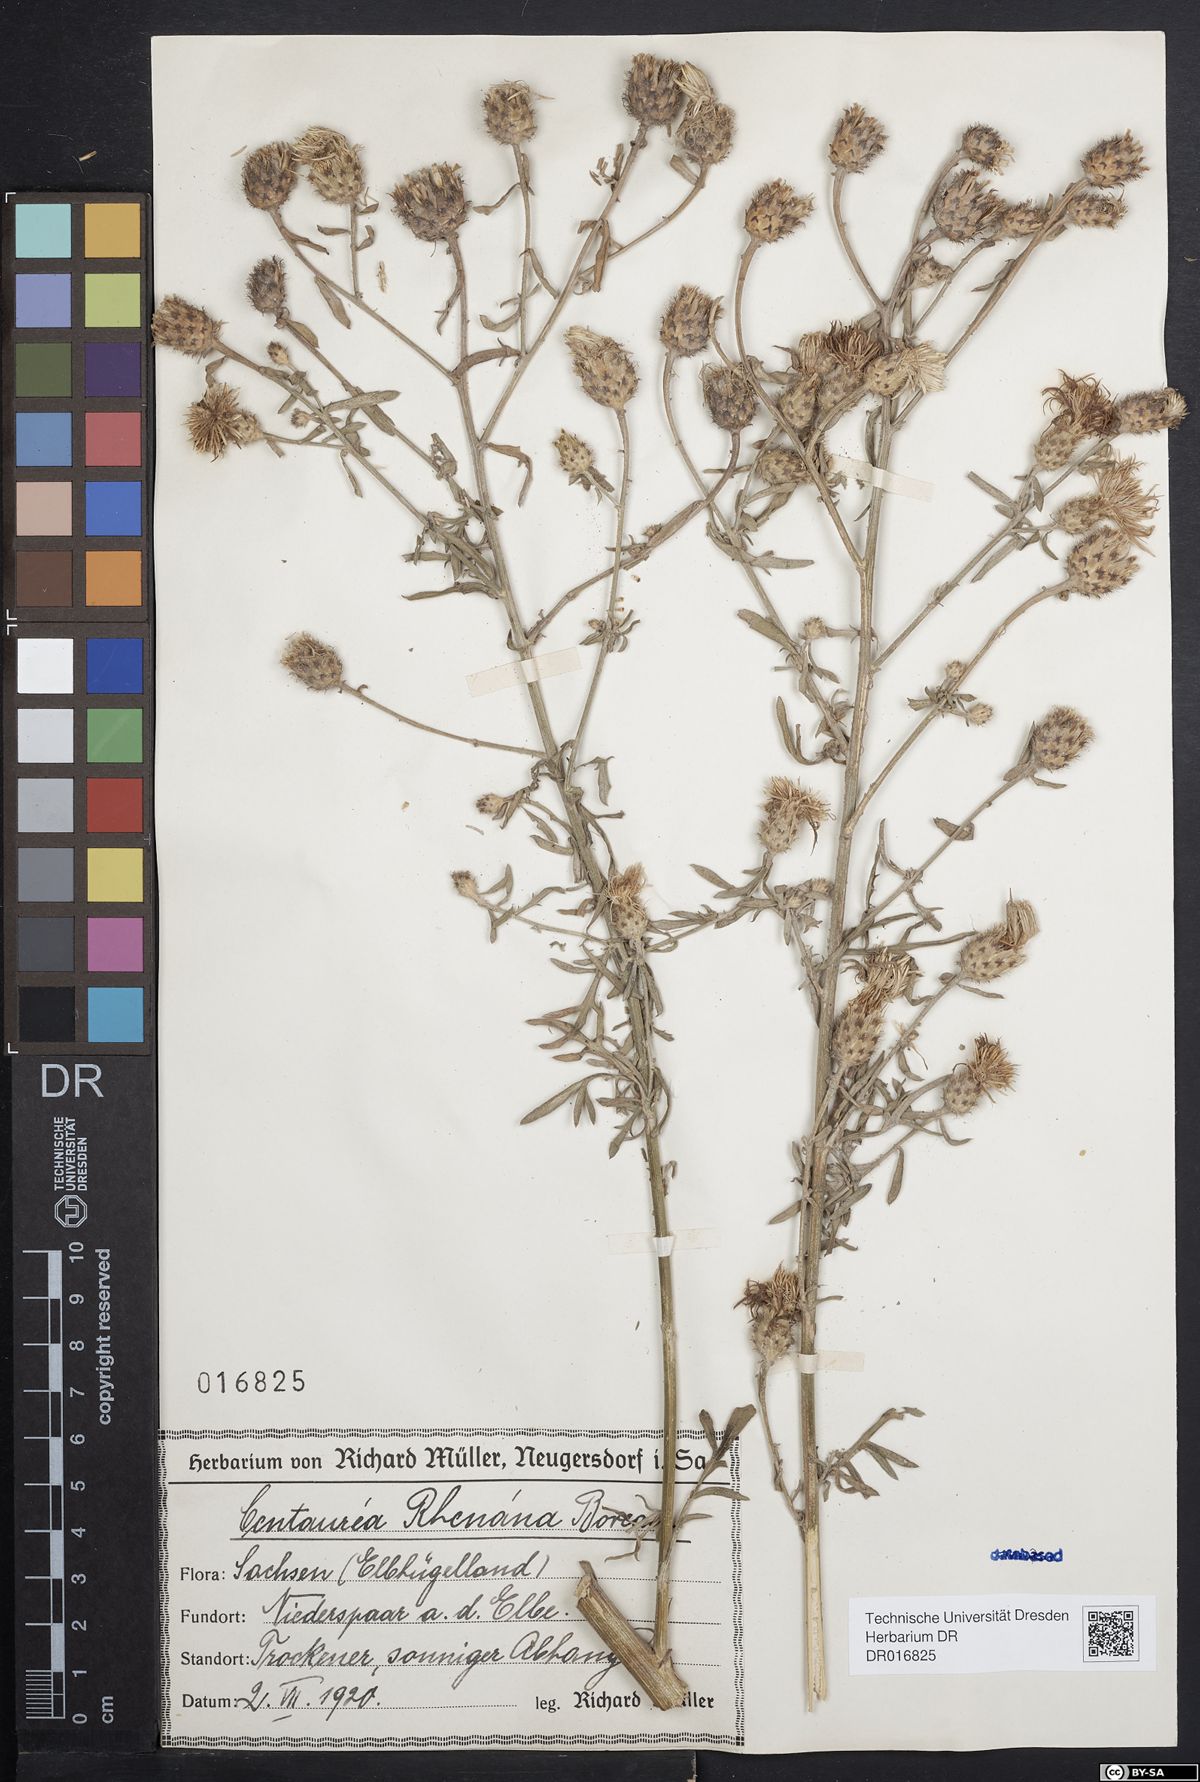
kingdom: Plantae
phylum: Tracheophyta
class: Magnoliopsida
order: Asterales
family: Asteraceae
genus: Centaurea
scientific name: Centaurea stoebe
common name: Spotted knapweed
